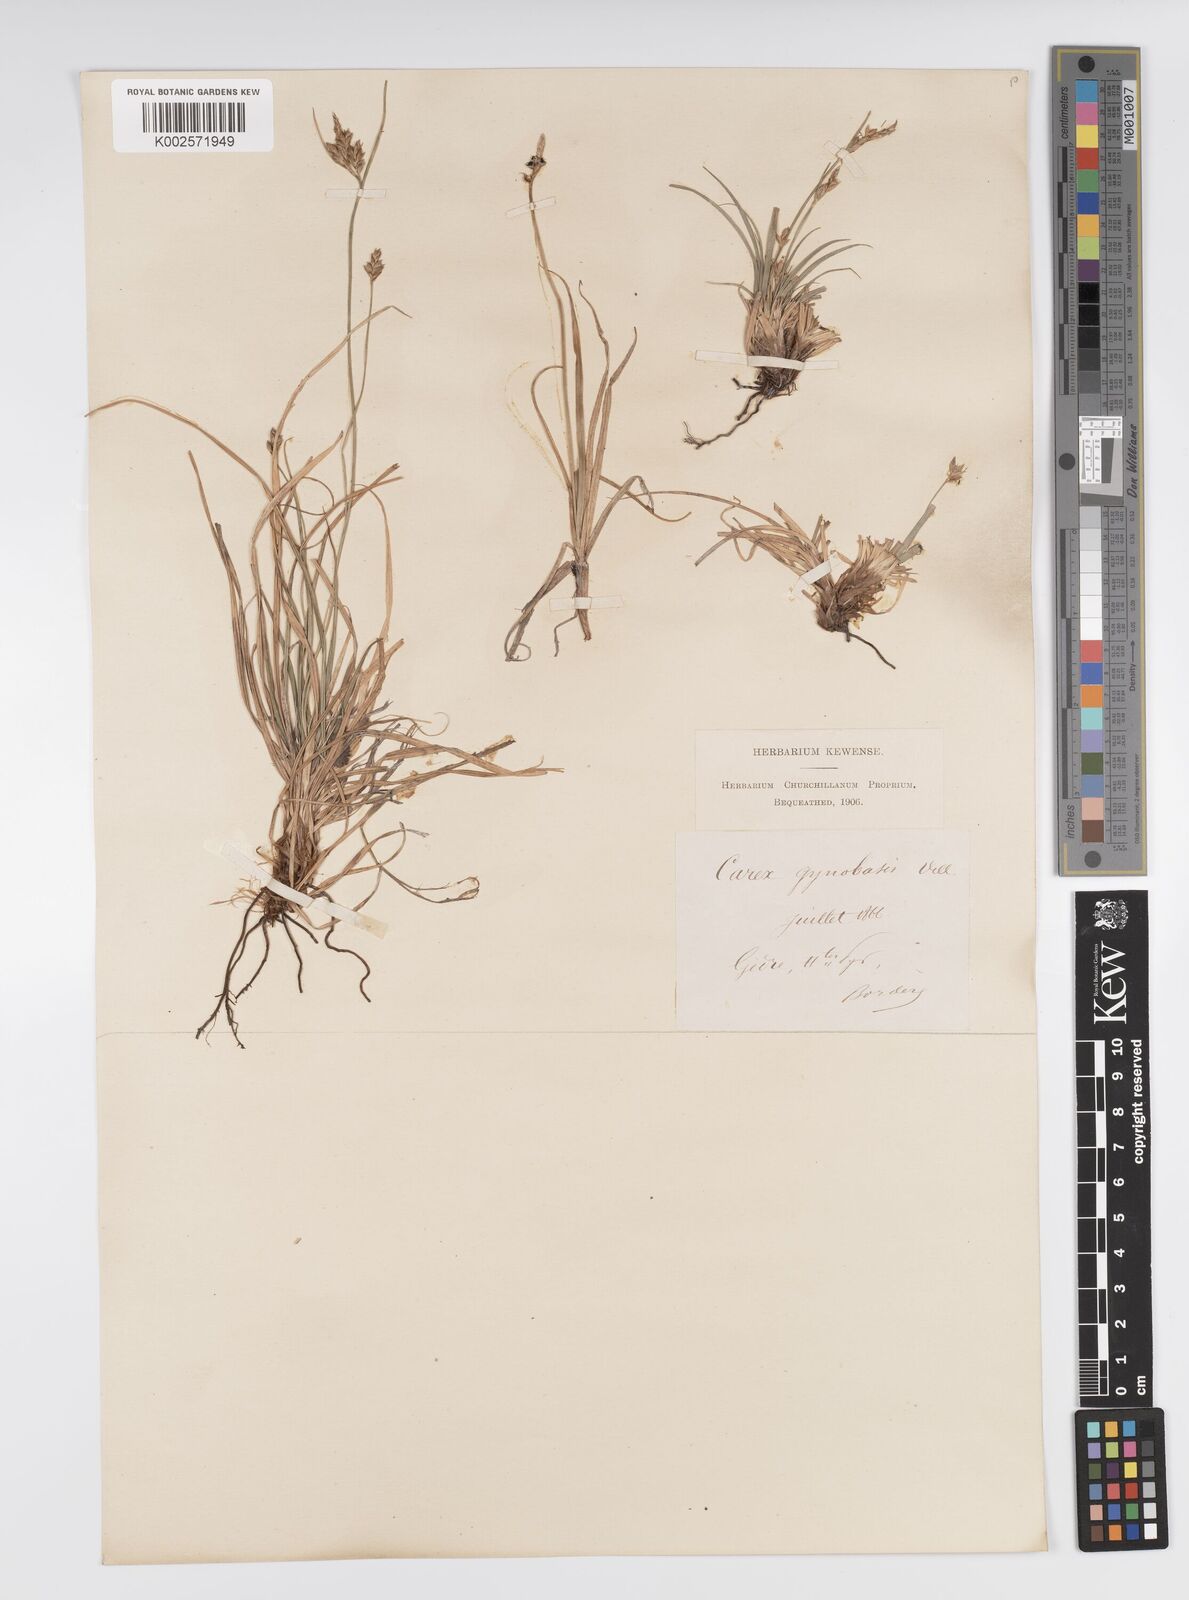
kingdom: Plantae
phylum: Tracheophyta
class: Liliopsida
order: Poales
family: Cyperaceae
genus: Carex
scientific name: Carex halleriana
